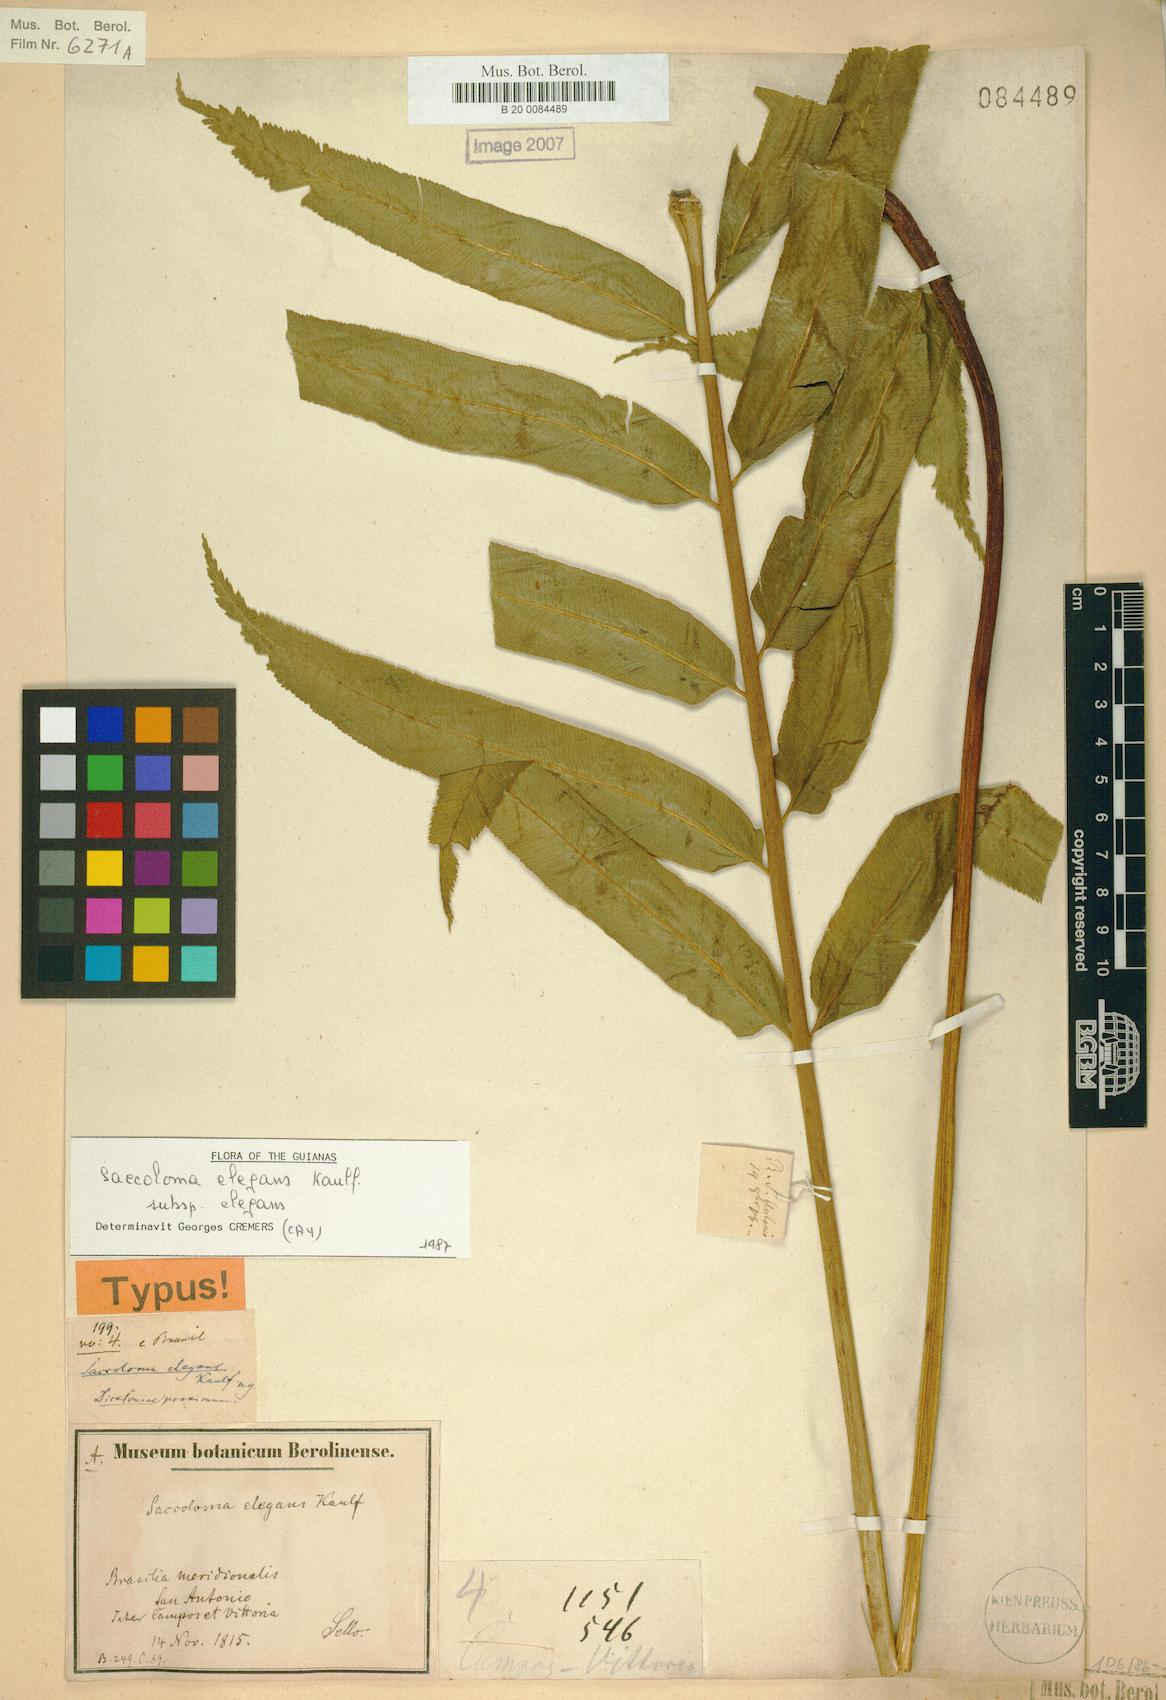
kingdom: Plantae
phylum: Tracheophyta
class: Polypodiopsida
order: Polypodiales
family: Saccolomataceae
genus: Saccoloma
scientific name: Saccoloma elegans
